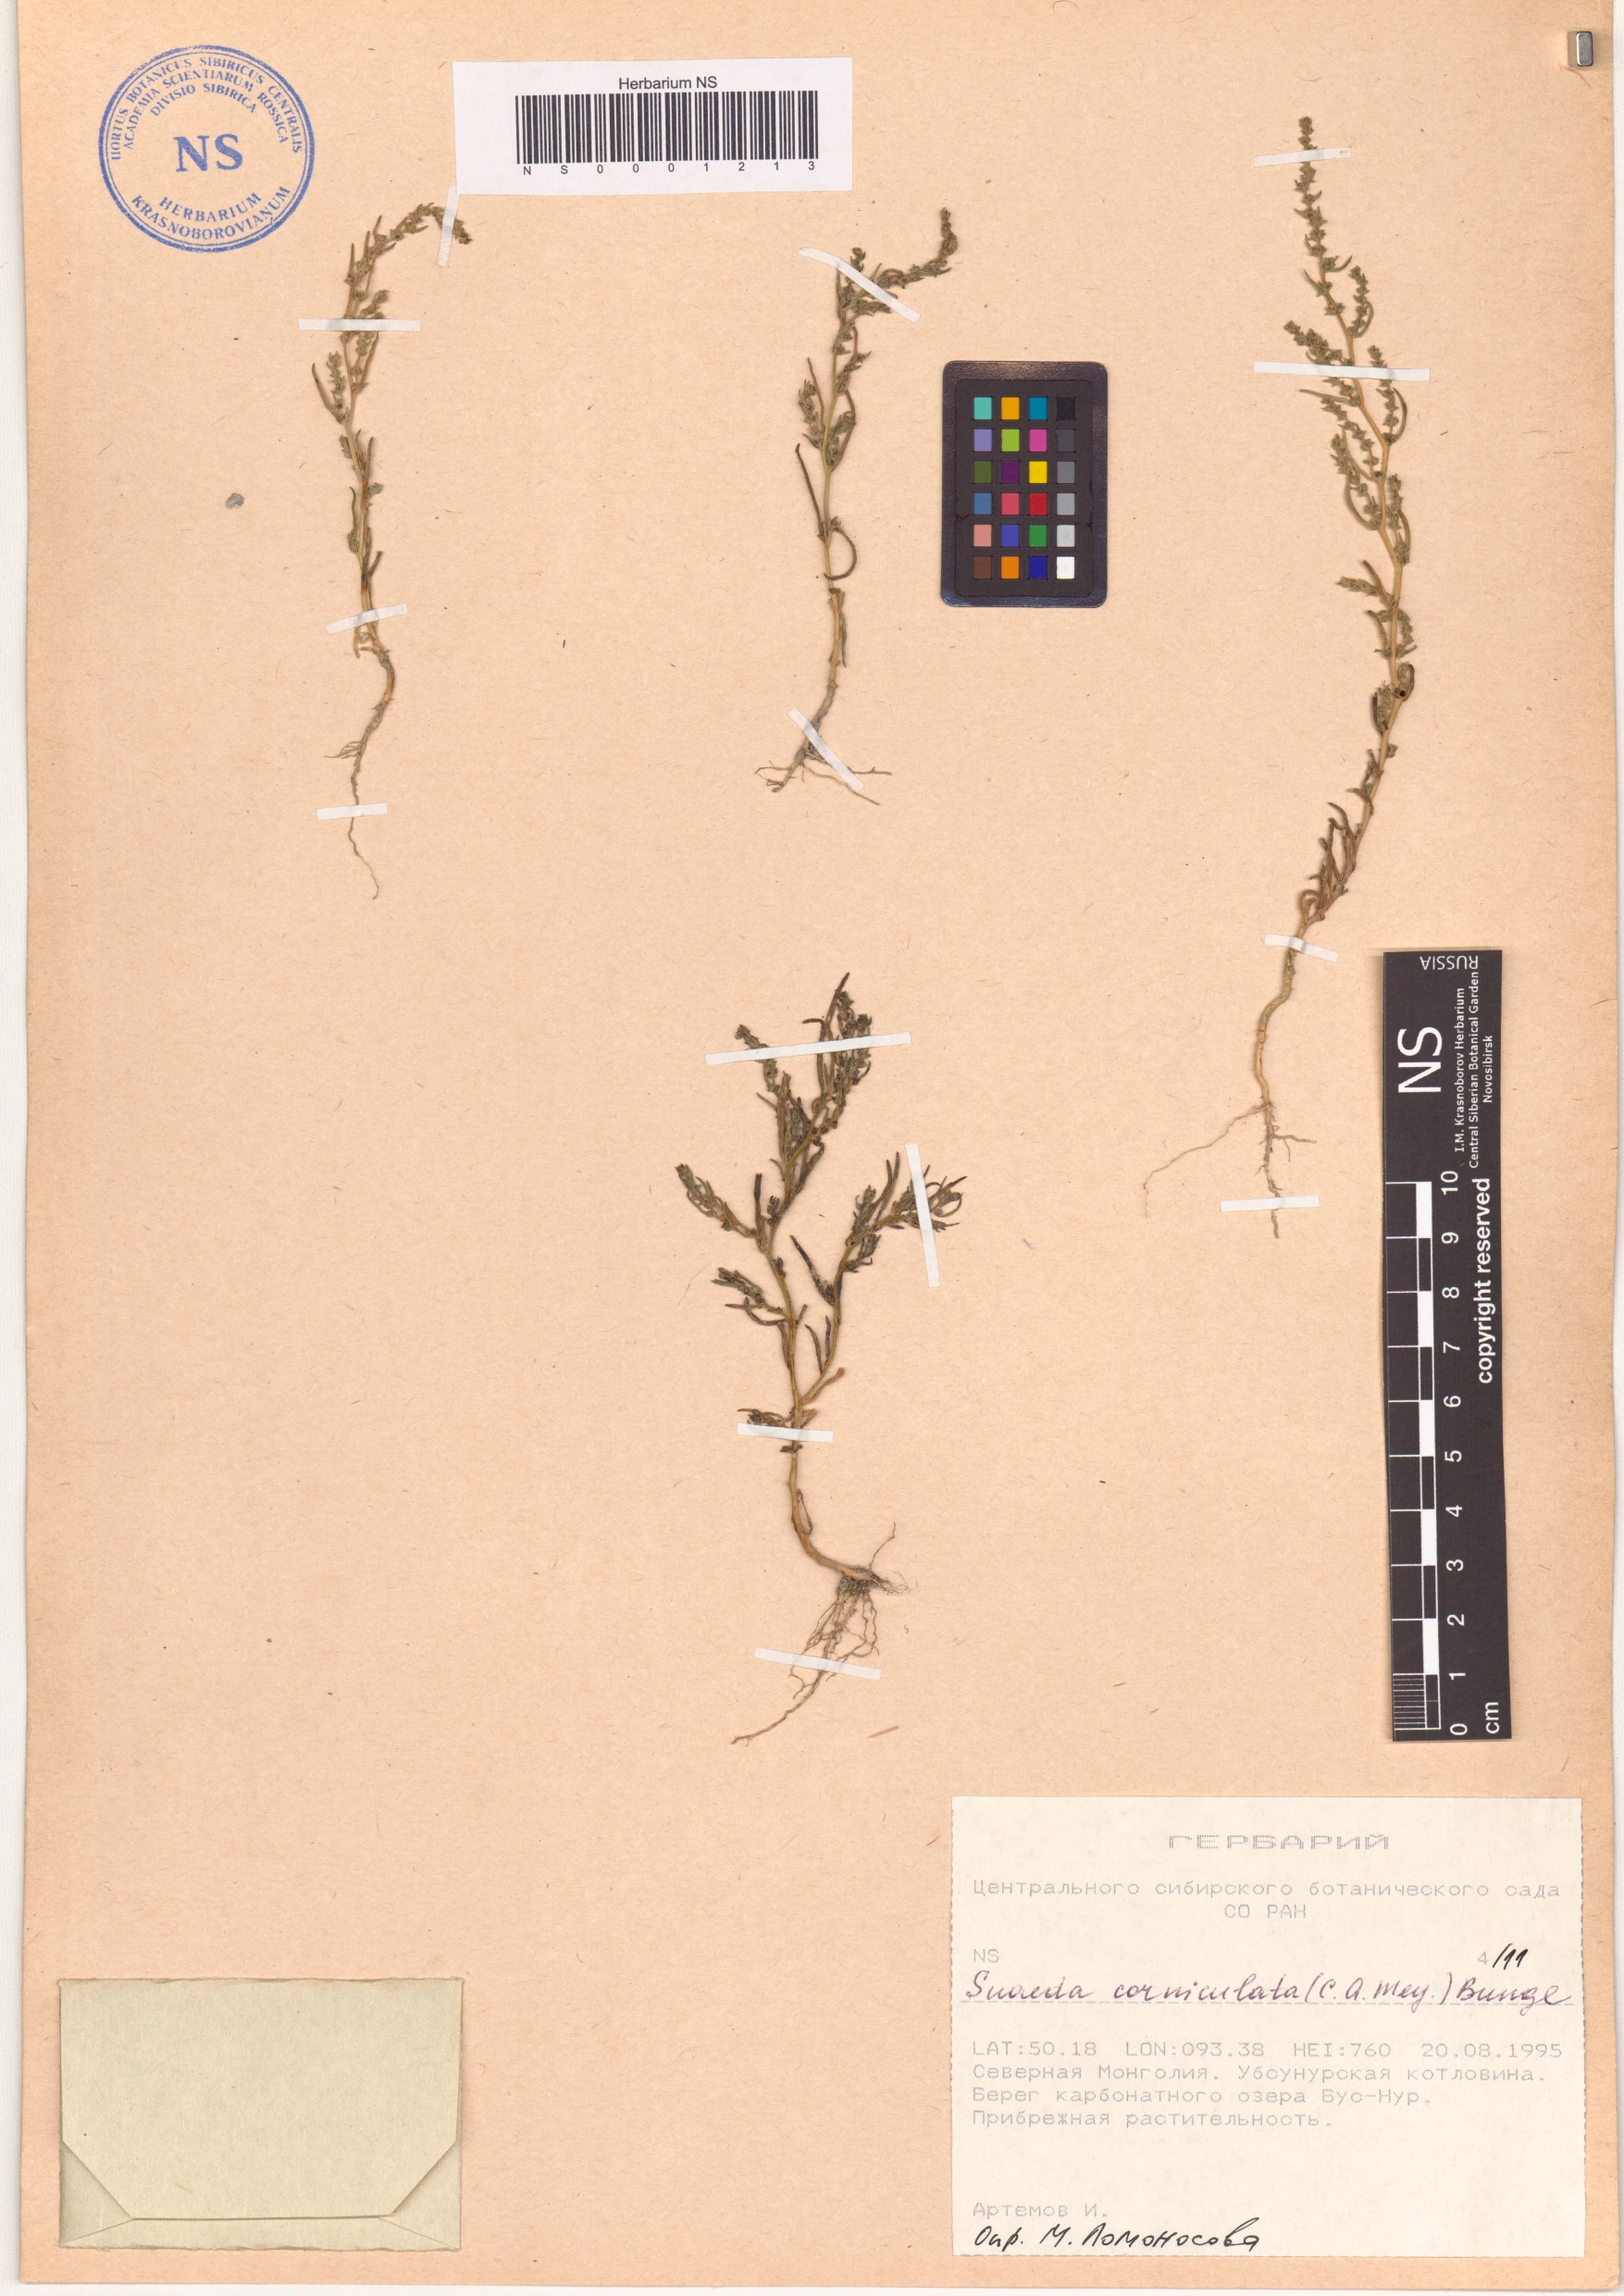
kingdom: Plantae
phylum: Tracheophyta
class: Magnoliopsida
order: Caryophyllales
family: Amaranthaceae
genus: Suaeda
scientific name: Suaeda corniculata
